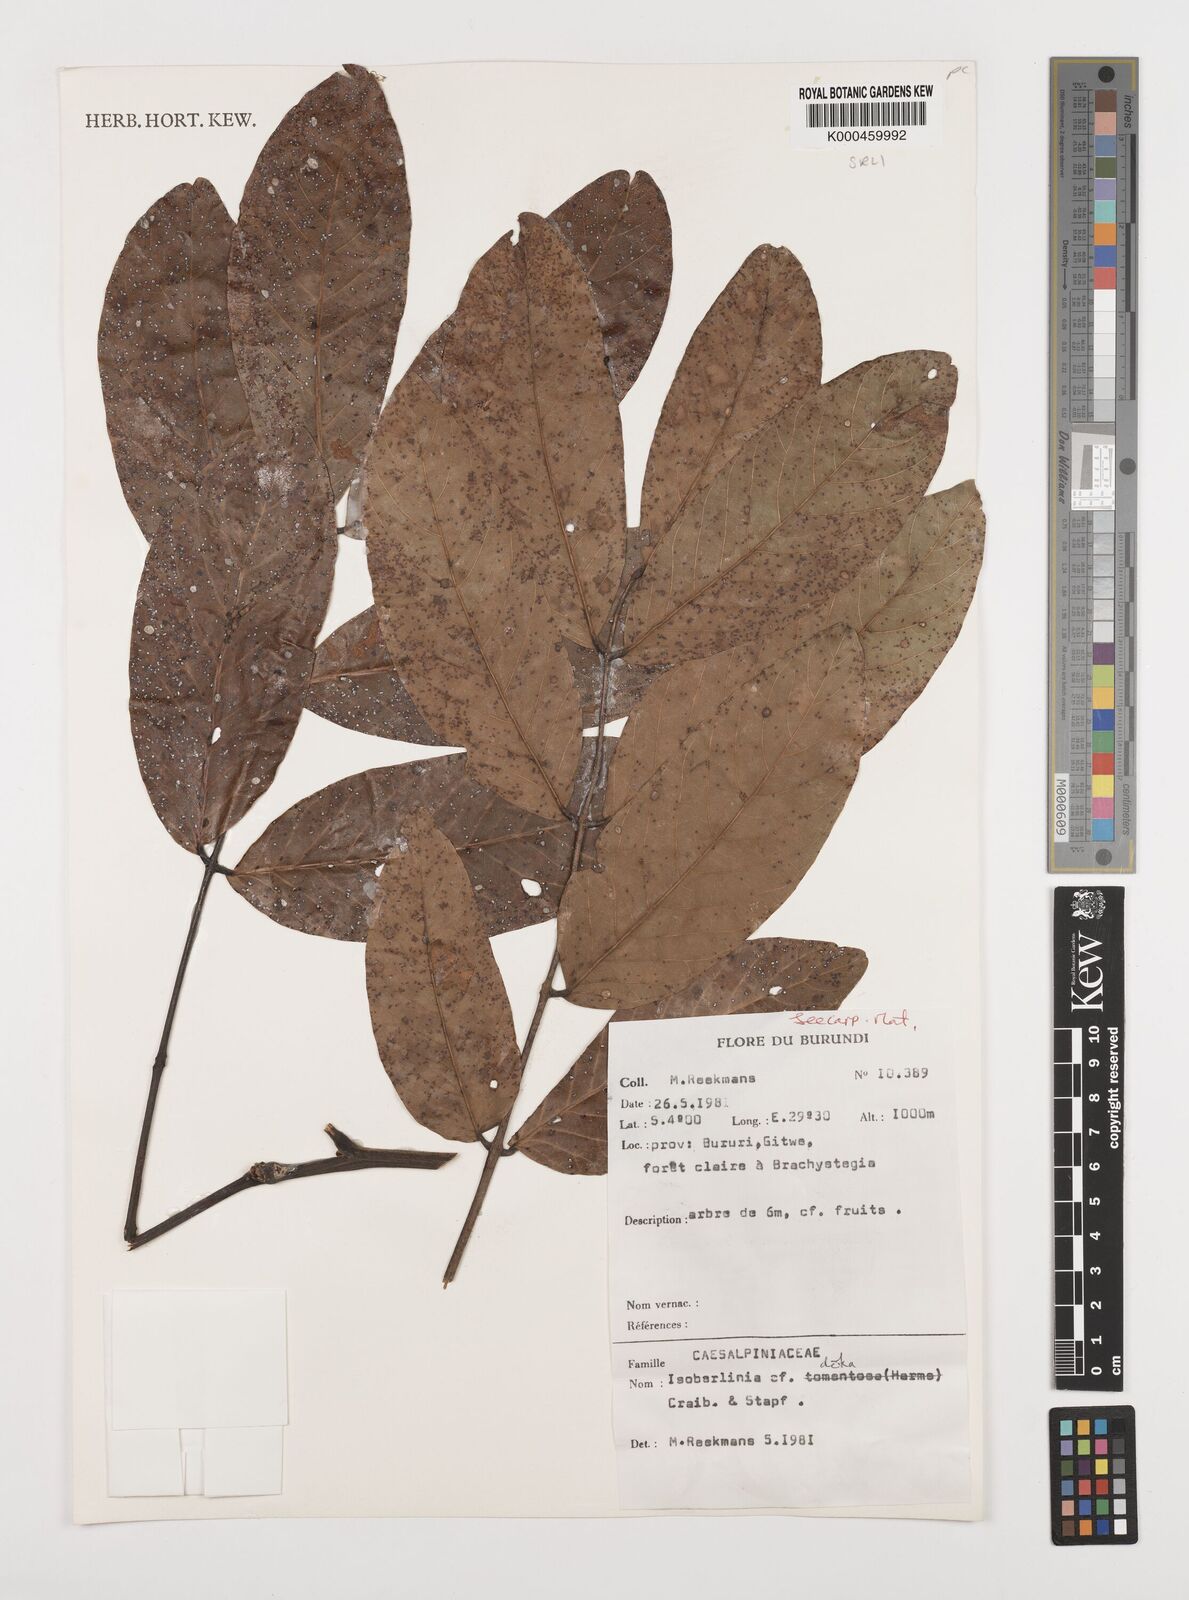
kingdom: Plantae
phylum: Tracheophyta
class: Magnoliopsida
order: Fabales
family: Fabaceae
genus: Isoberlinia
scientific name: Isoberlinia doka
